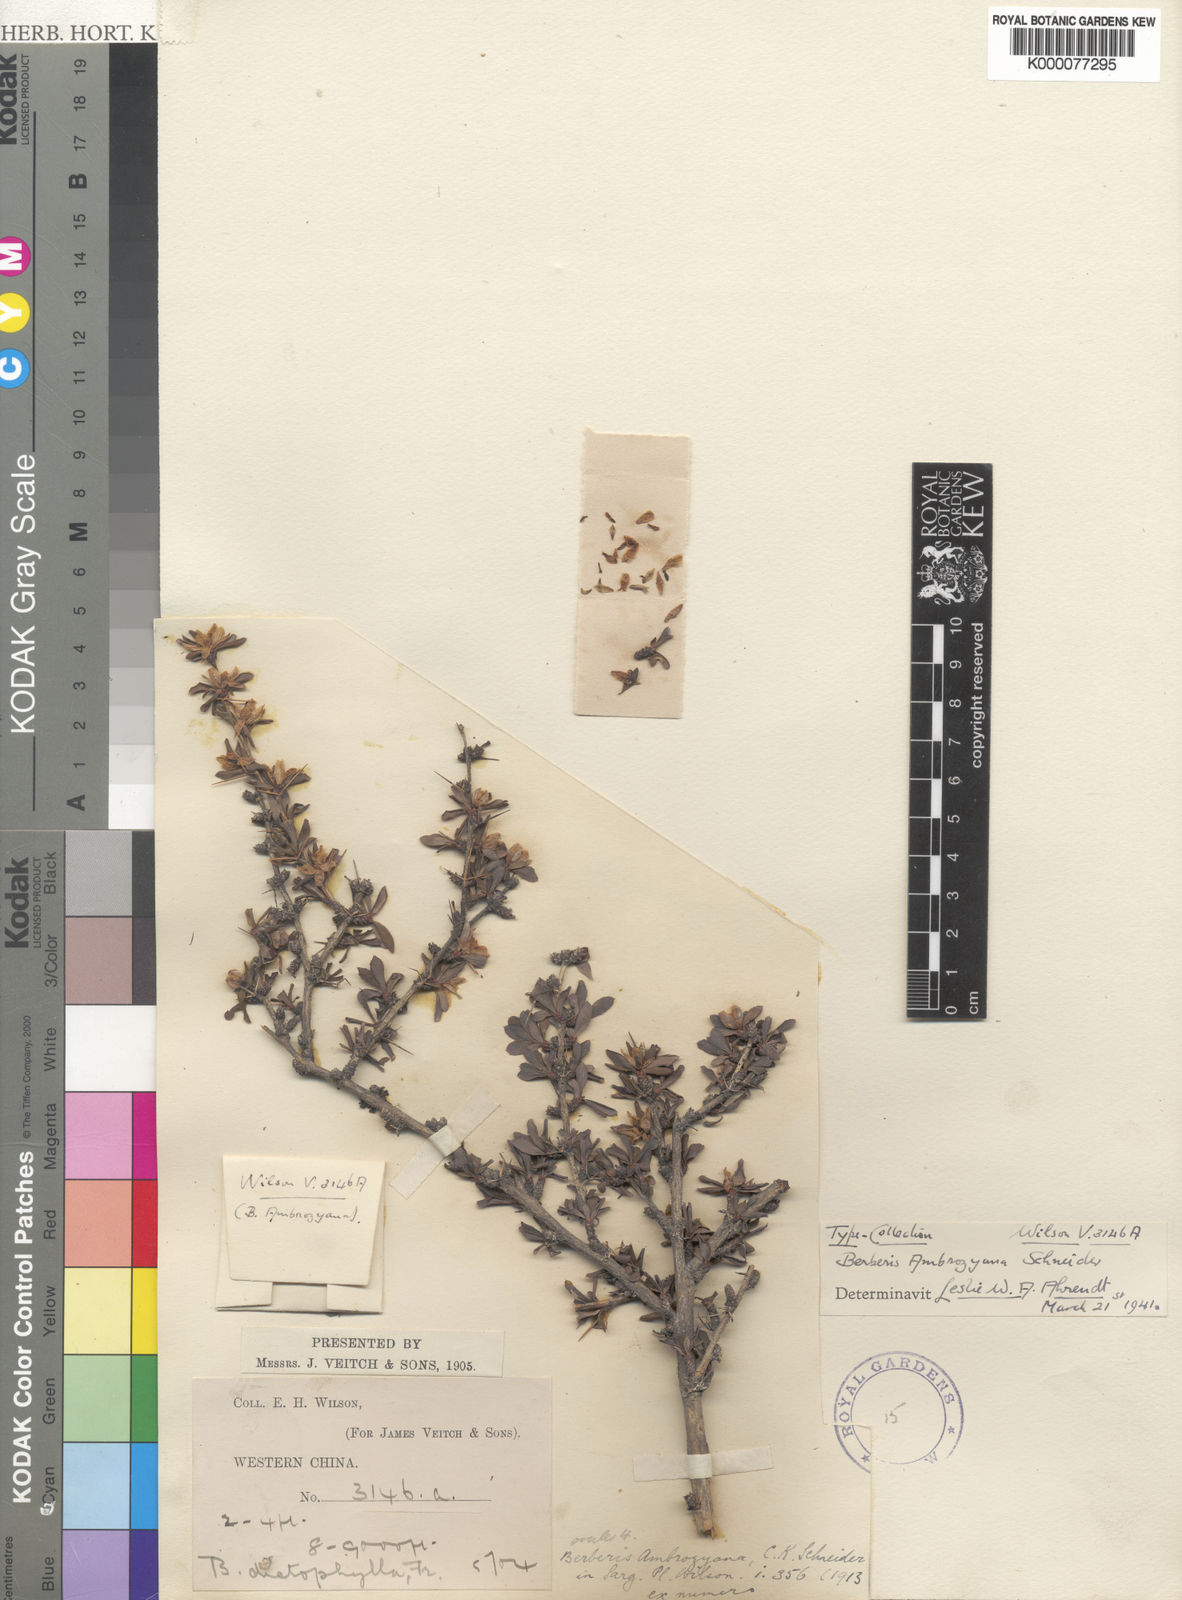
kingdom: Plantae
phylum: Tracheophyta
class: Magnoliopsida
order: Ranunculales
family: Berberidaceae
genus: Berberis
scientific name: Berberis ambrozyana
